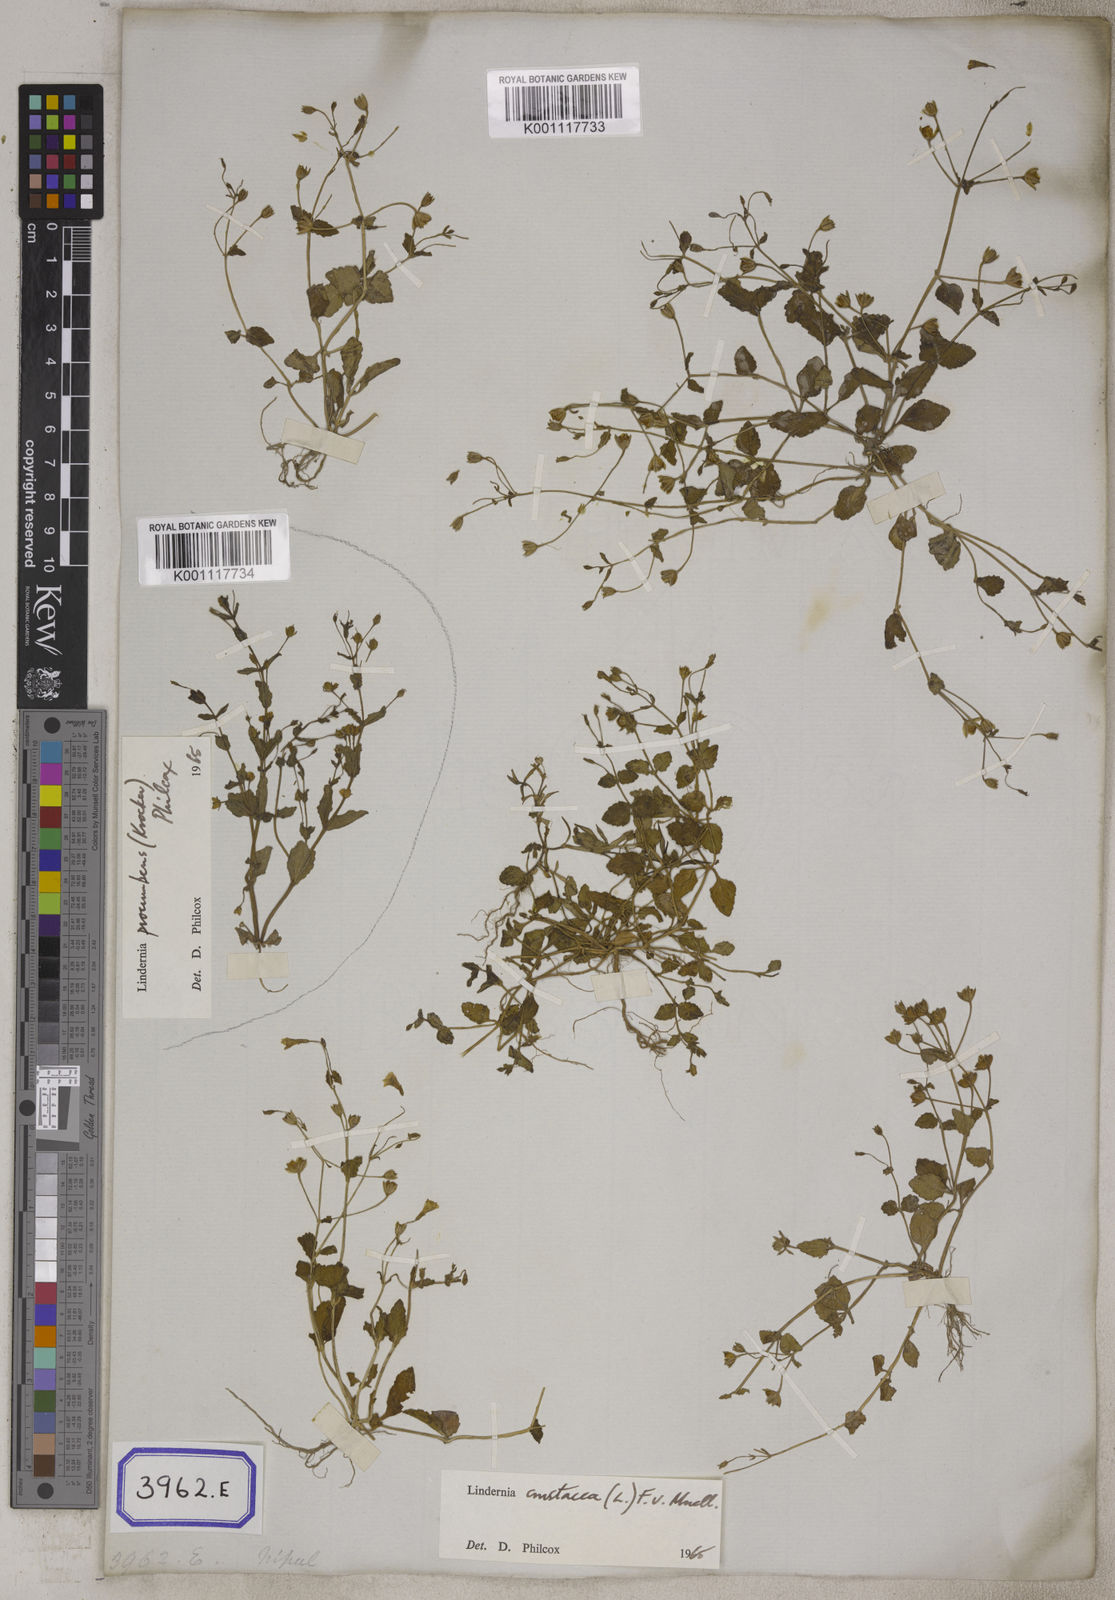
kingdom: Plantae
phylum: Tracheophyta
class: Magnoliopsida
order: Lamiales
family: Linderniaceae
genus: Torenia
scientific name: Torenia crustacea
